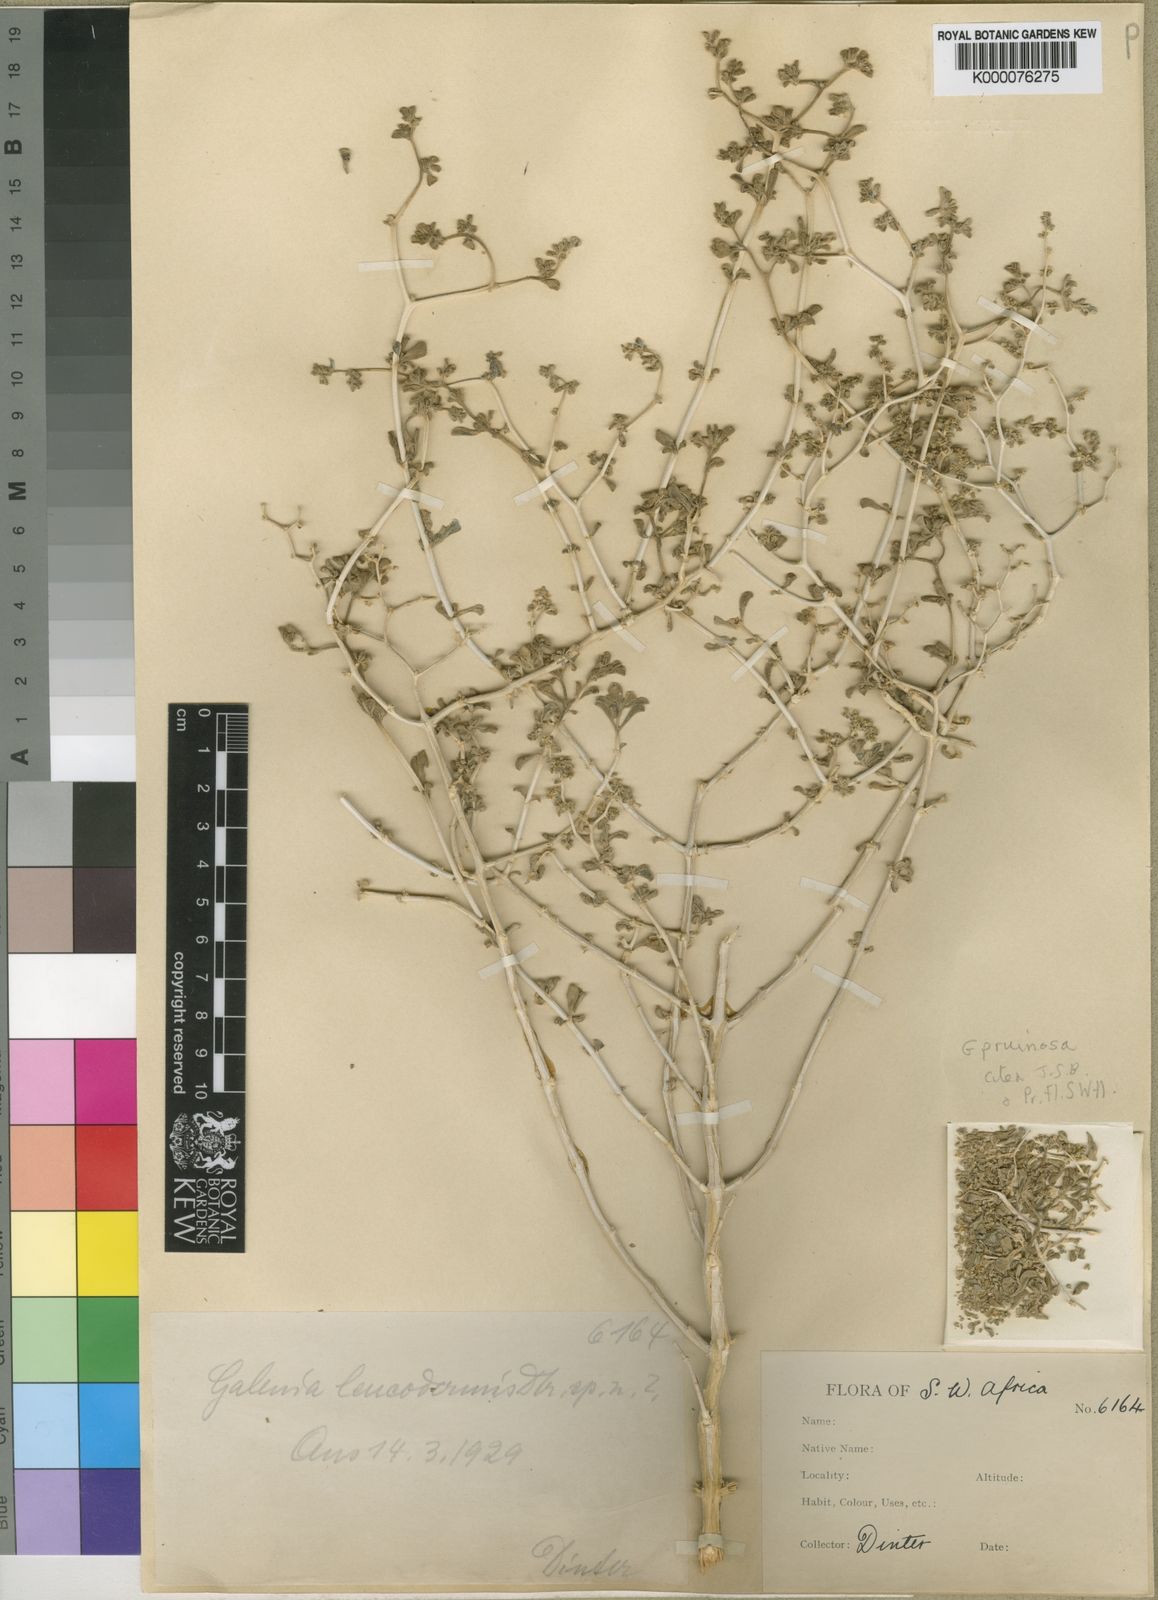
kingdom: Plantae
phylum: Tracheophyta
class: Magnoliopsida
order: Caryophyllales
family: Aizoaceae
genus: Aizoon
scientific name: Aizoon pruinosum
